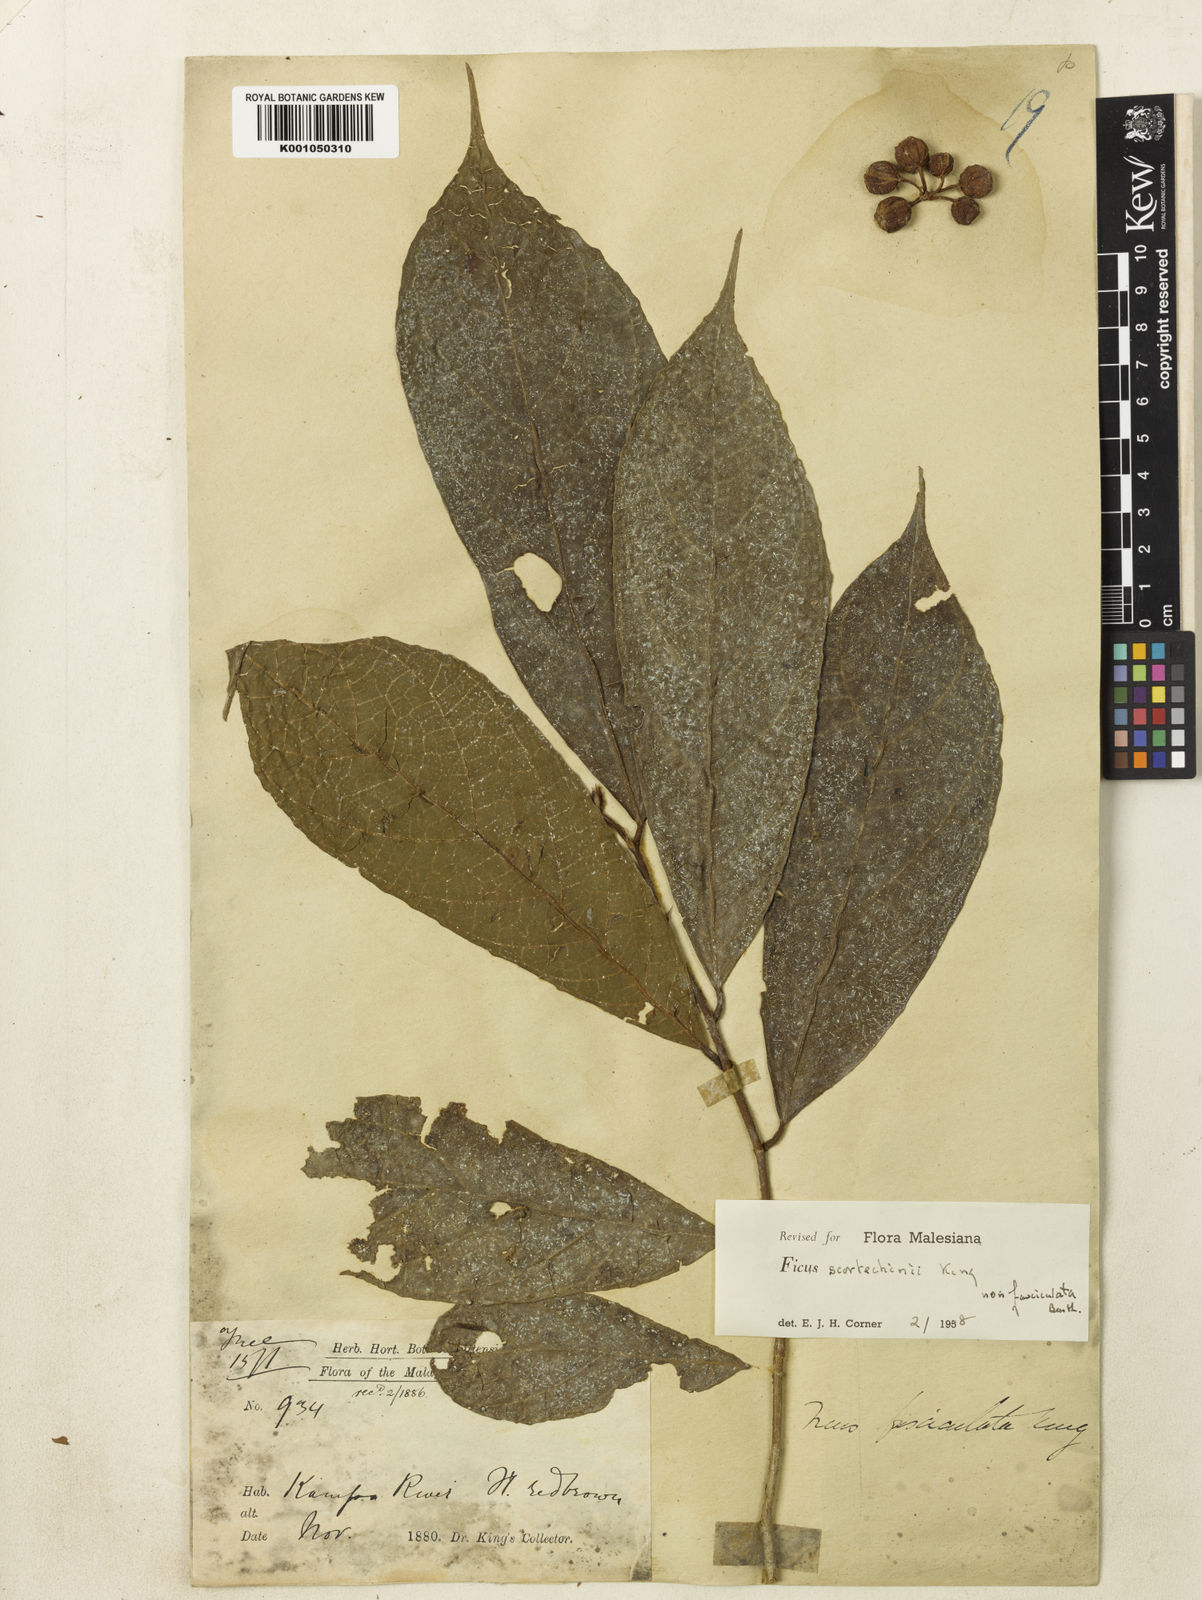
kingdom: Plantae
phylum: Tracheophyta
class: Magnoliopsida
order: Rosales
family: Moraceae
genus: Ficus
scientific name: Ficus ribes
